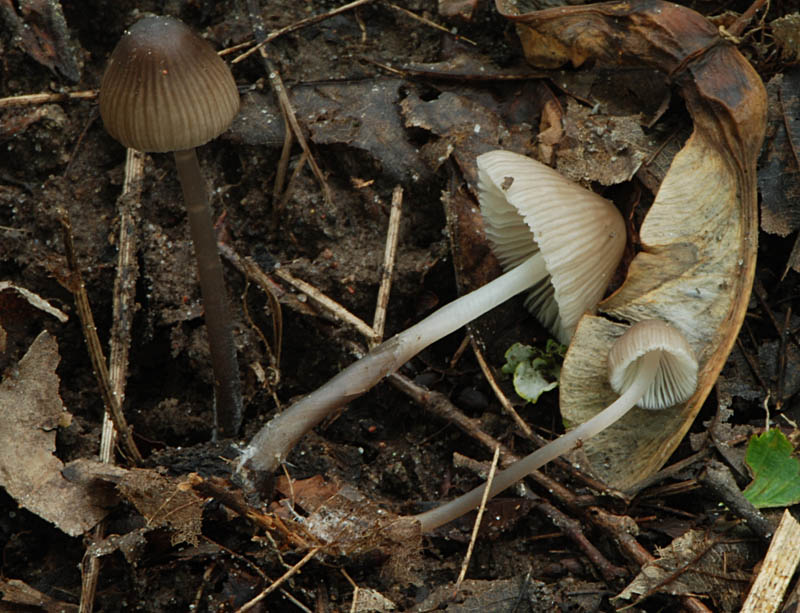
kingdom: Fungi
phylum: Basidiomycota
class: Agaricomycetes
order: Agaricales
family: Mycenaceae
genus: Mycena
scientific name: Mycena abramsii
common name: sommer-huesvamp
